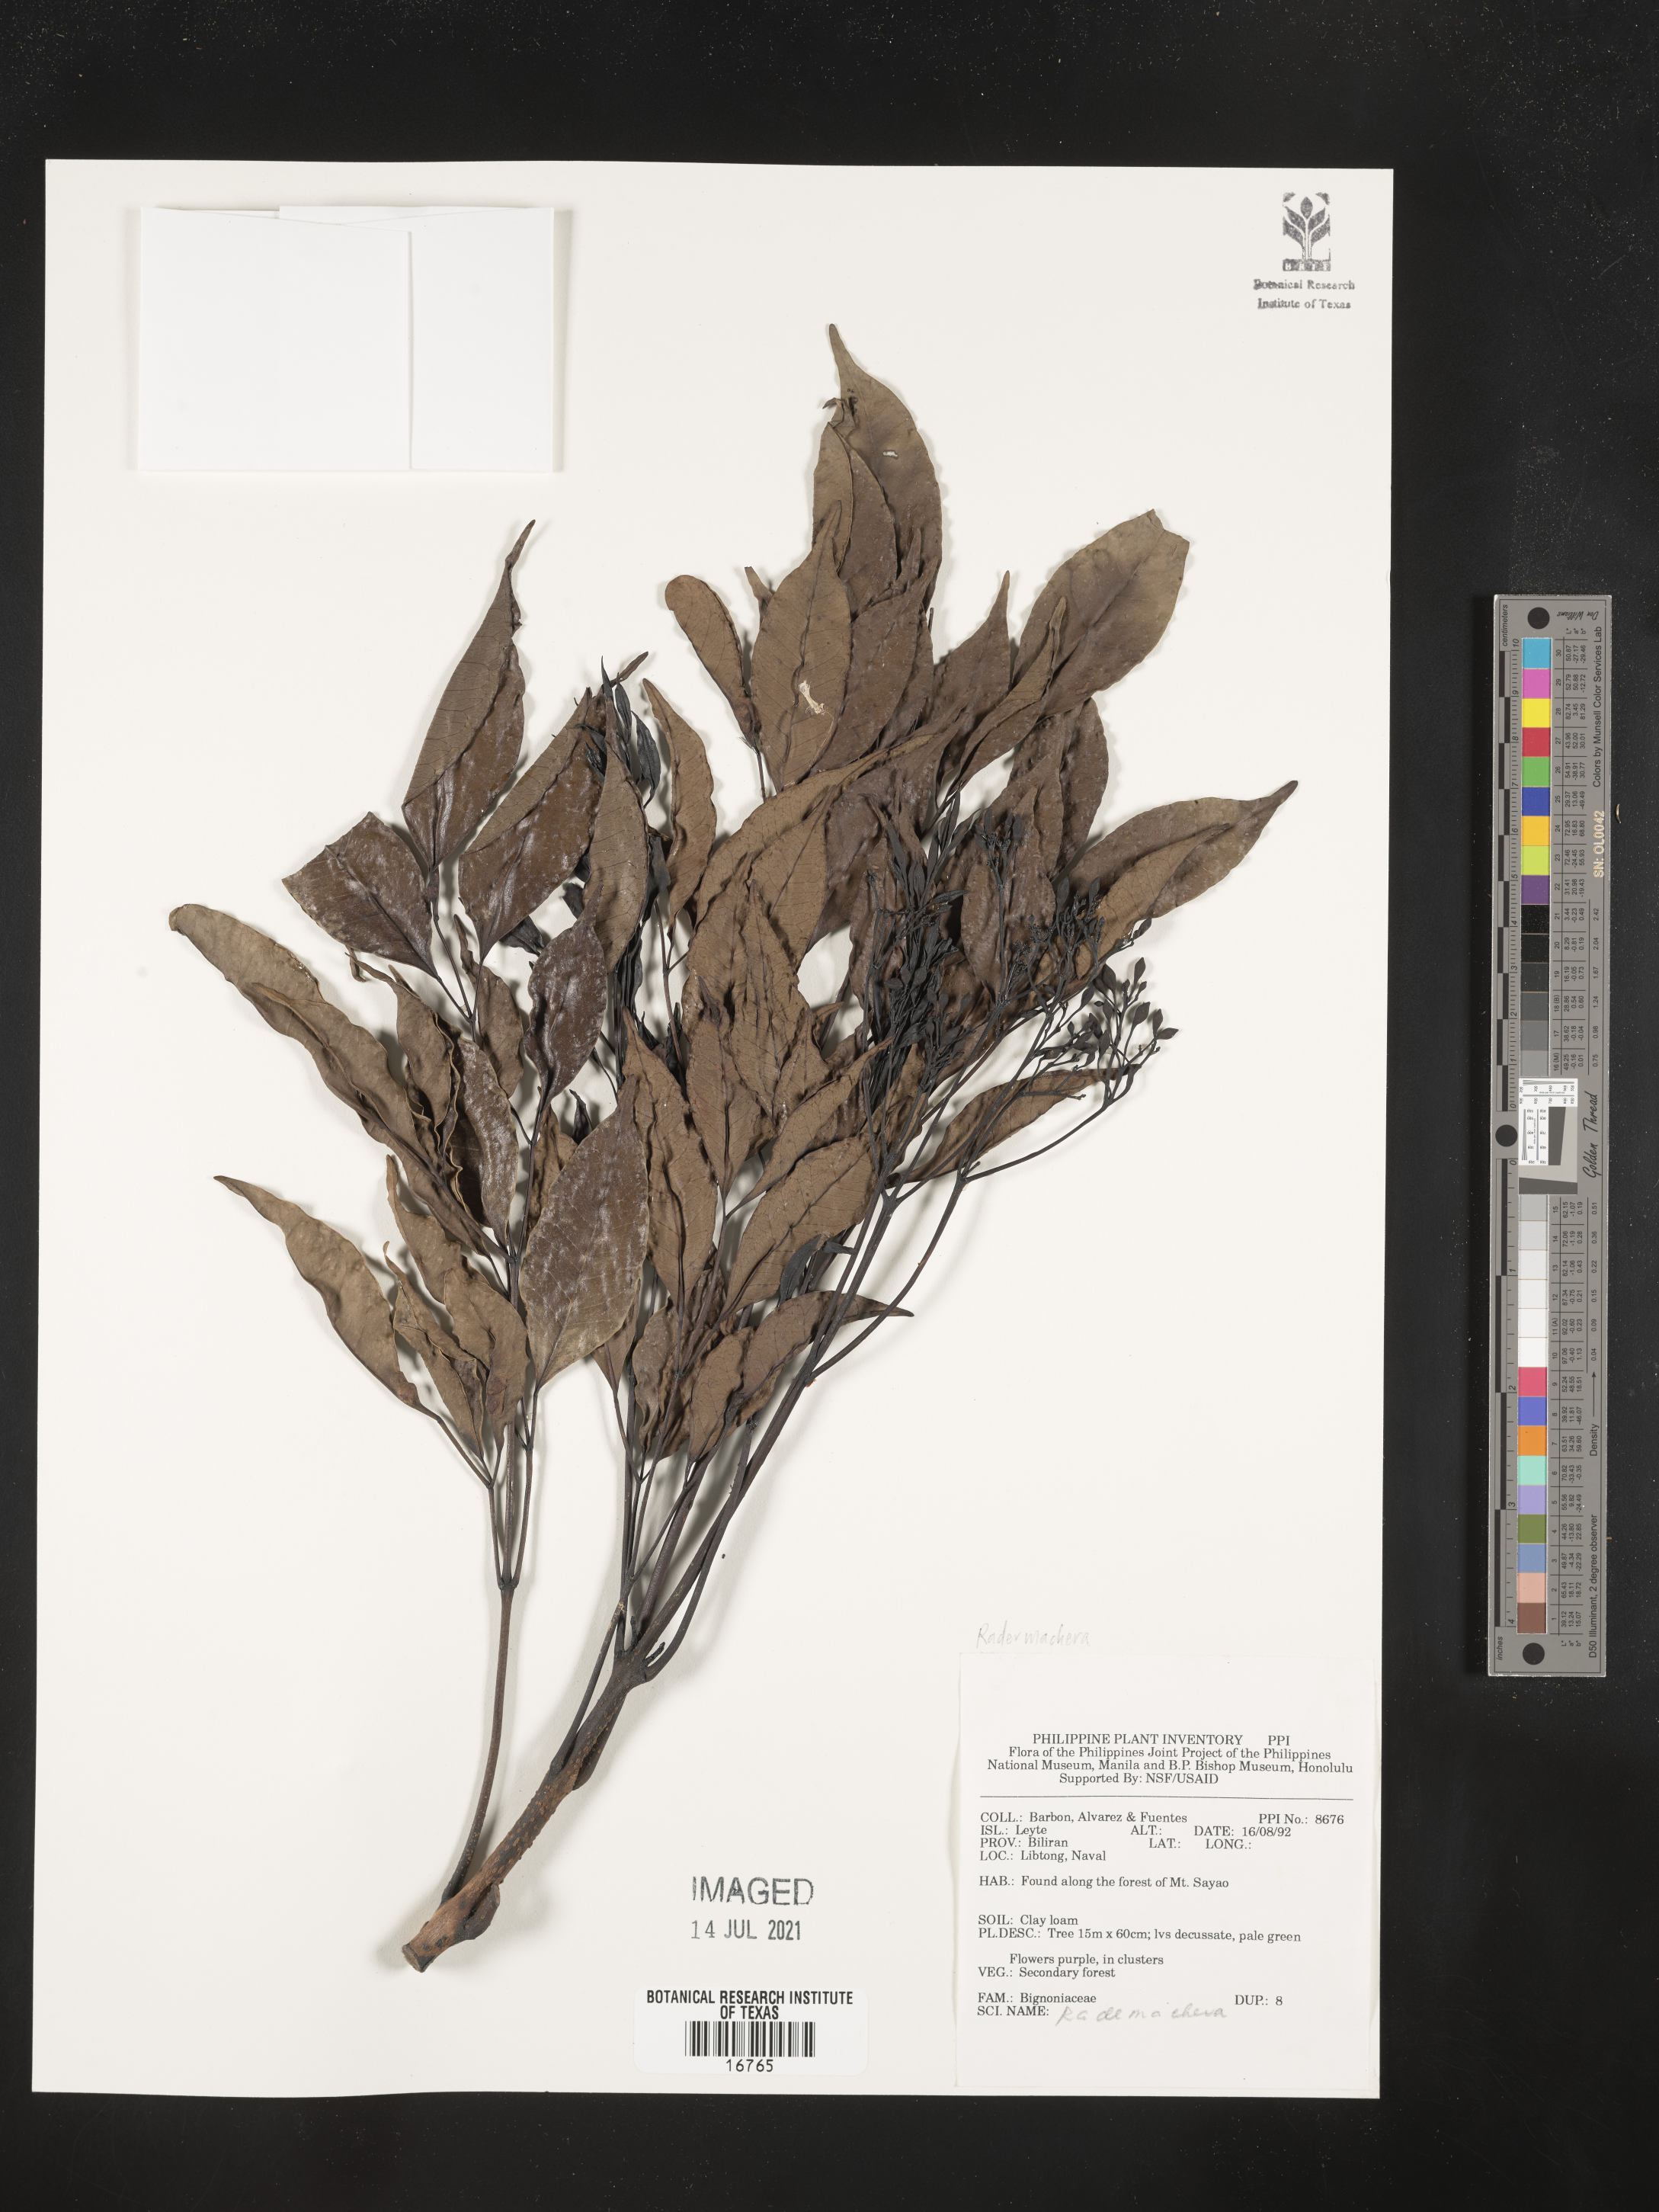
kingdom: Plantae
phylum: Tracheophyta
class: Magnoliopsida
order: Lamiales
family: Bignoniaceae
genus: Radermachera
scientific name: Radermachera
